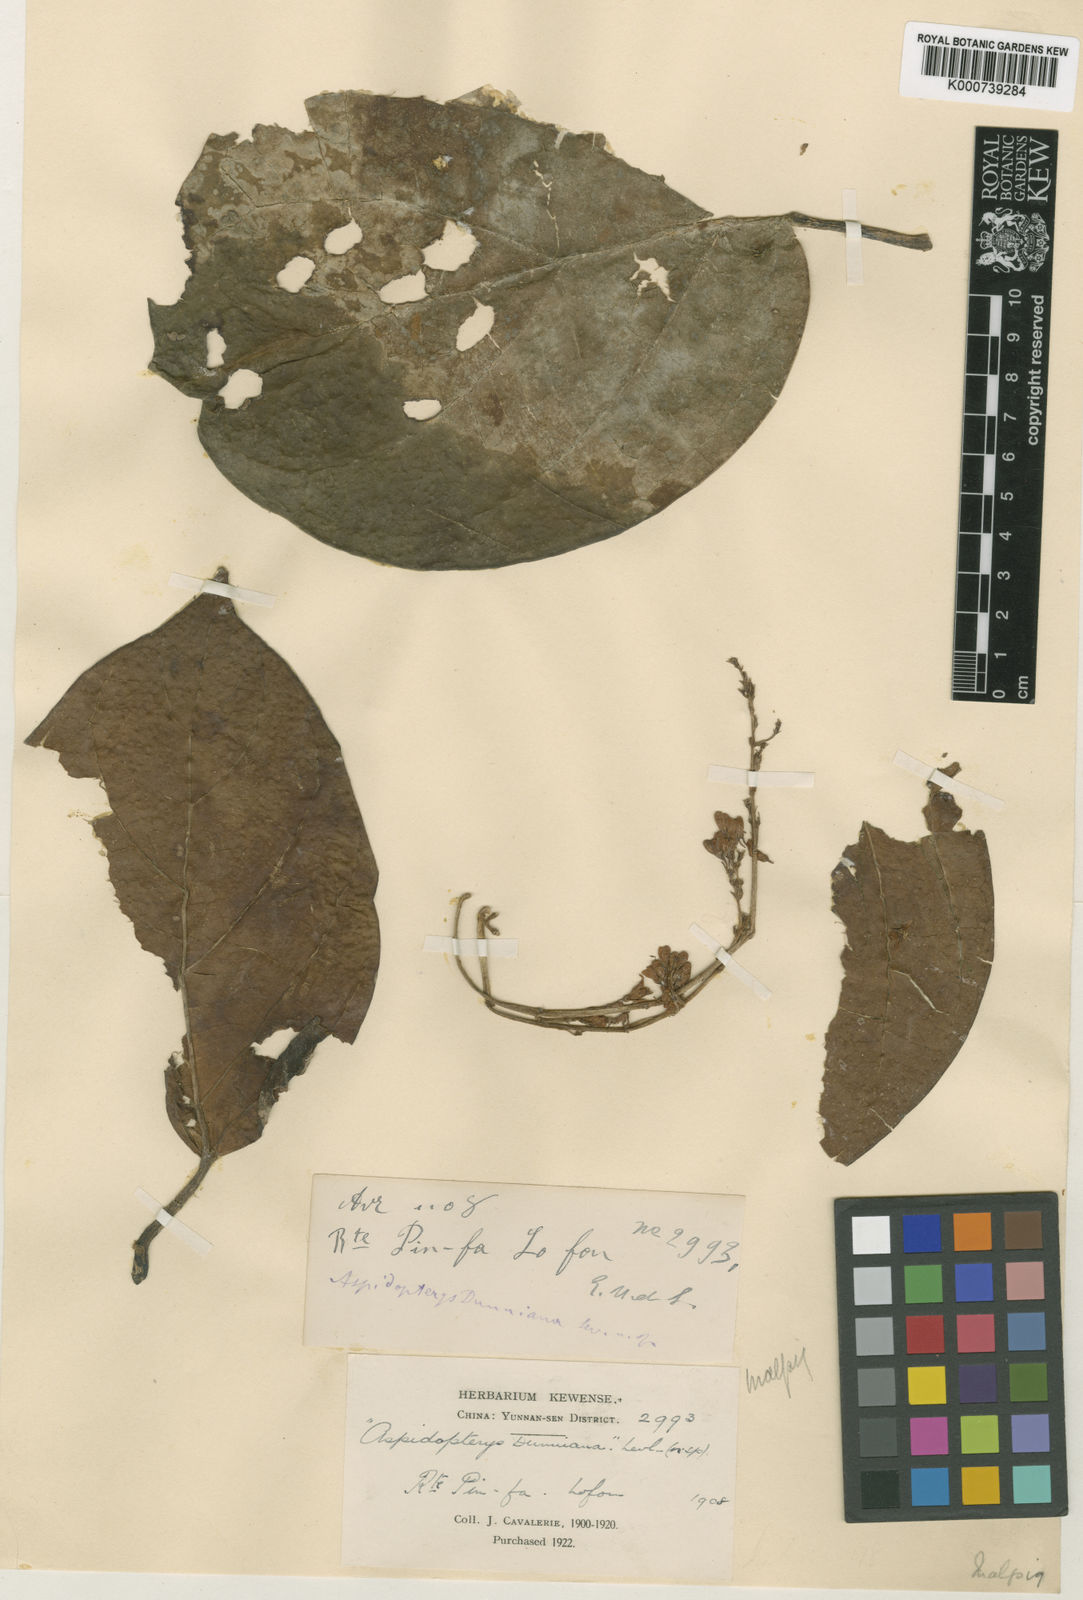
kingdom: Plantae
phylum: Tracheophyta
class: Magnoliopsida
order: Malpighiales
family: Malpighiaceae
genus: Aspidopterys
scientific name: Aspidopterys
